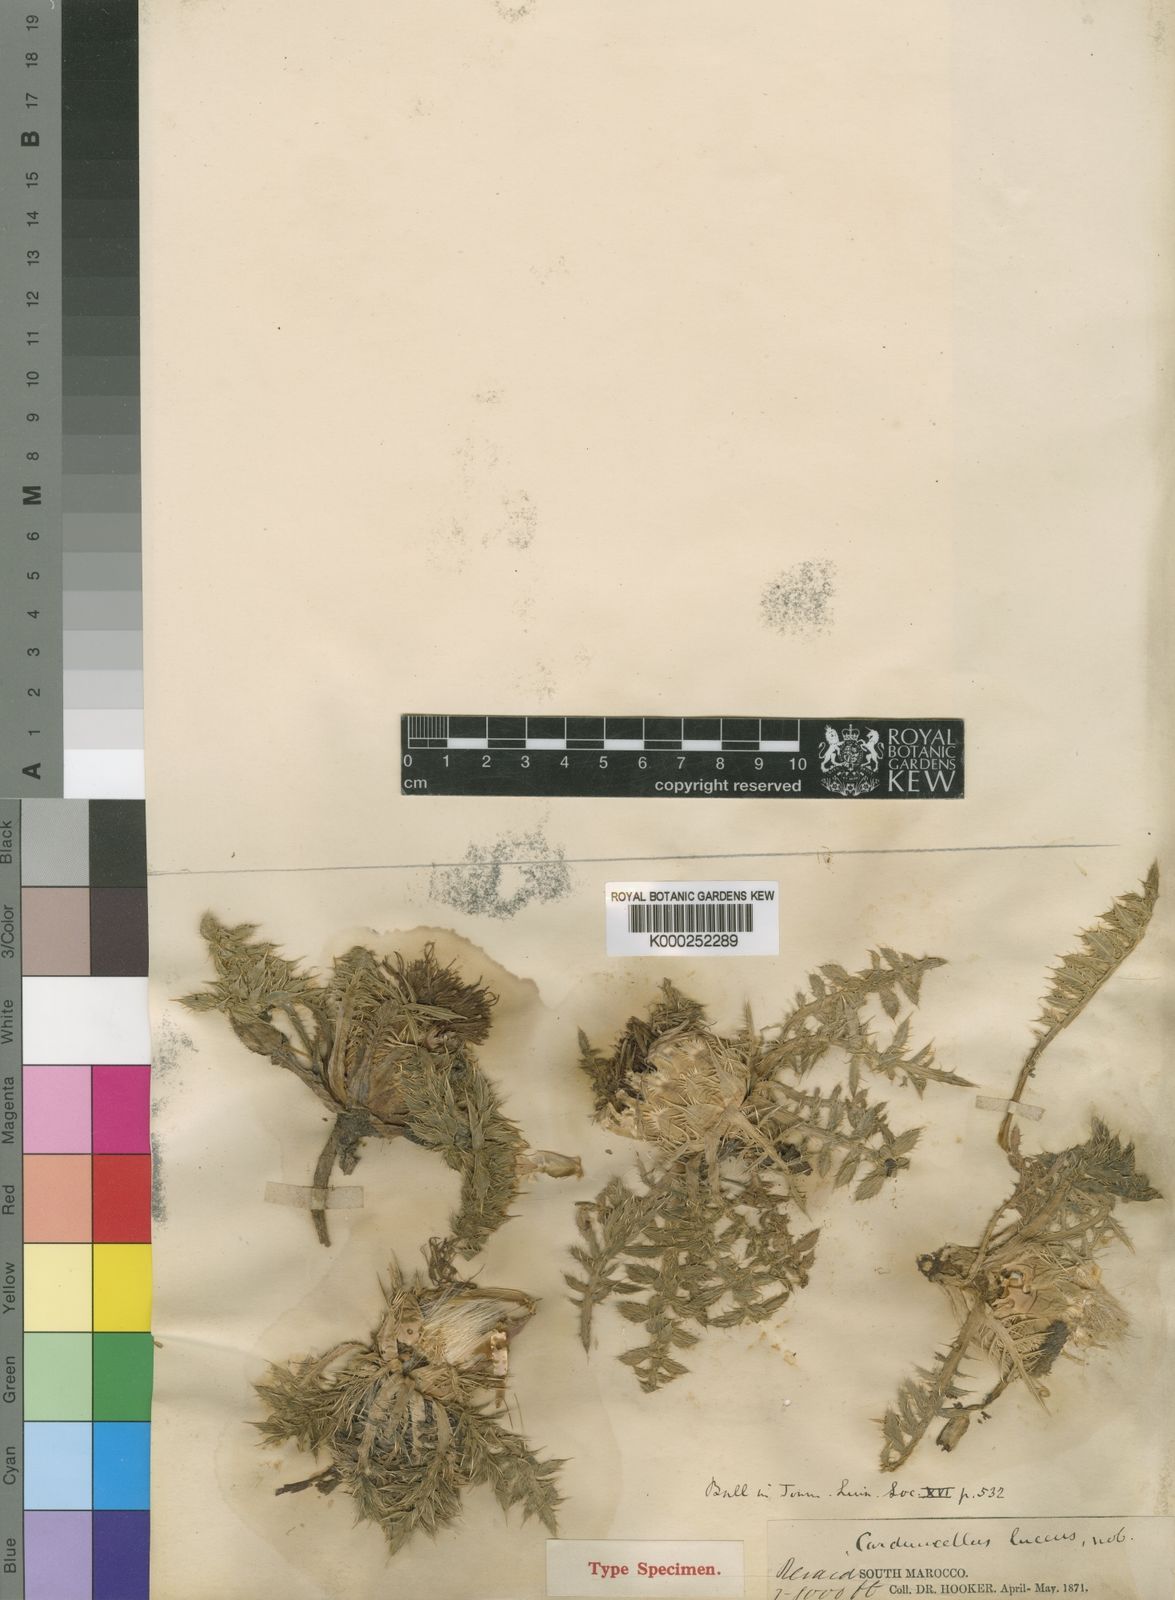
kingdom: Plantae
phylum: Tracheophyta
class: Magnoliopsida
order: Asterales
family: Asteraceae
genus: Carduncellus
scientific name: Carduncellus lucens
